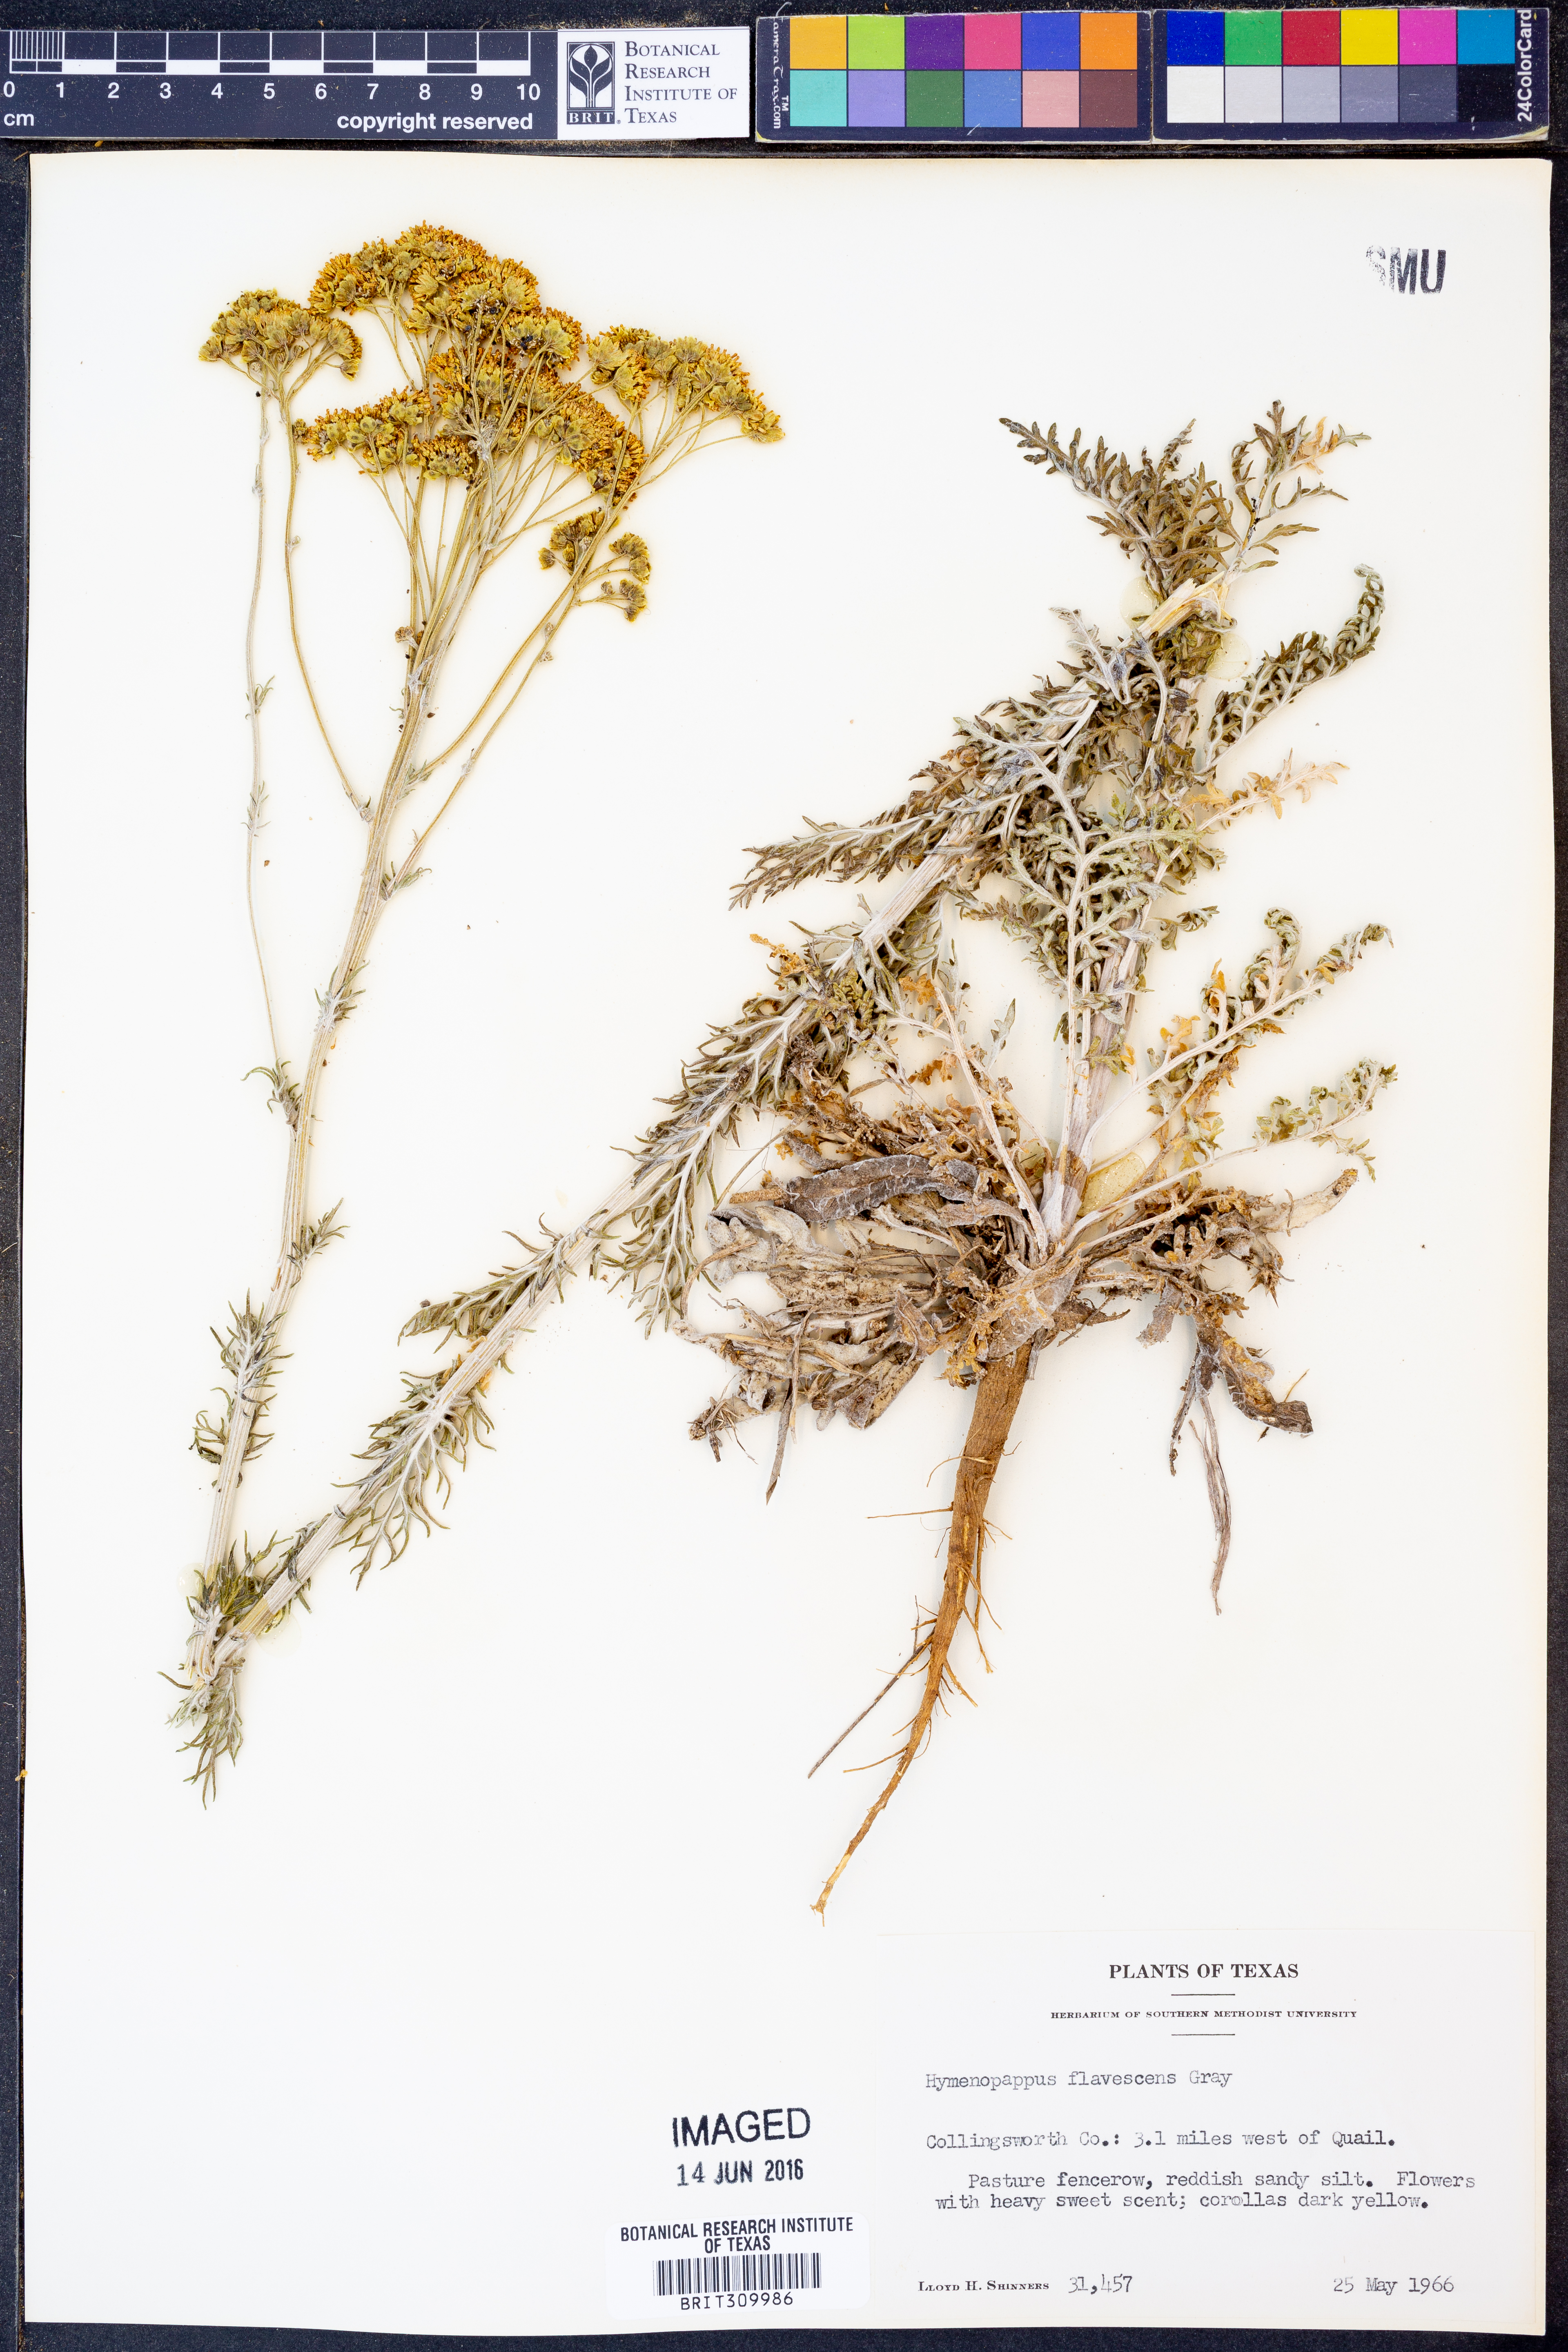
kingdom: Plantae
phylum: Tracheophyta
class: Magnoliopsida
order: Asterales
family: Asteraceae
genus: Hymenopappus
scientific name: Hymenopappus flavescens
